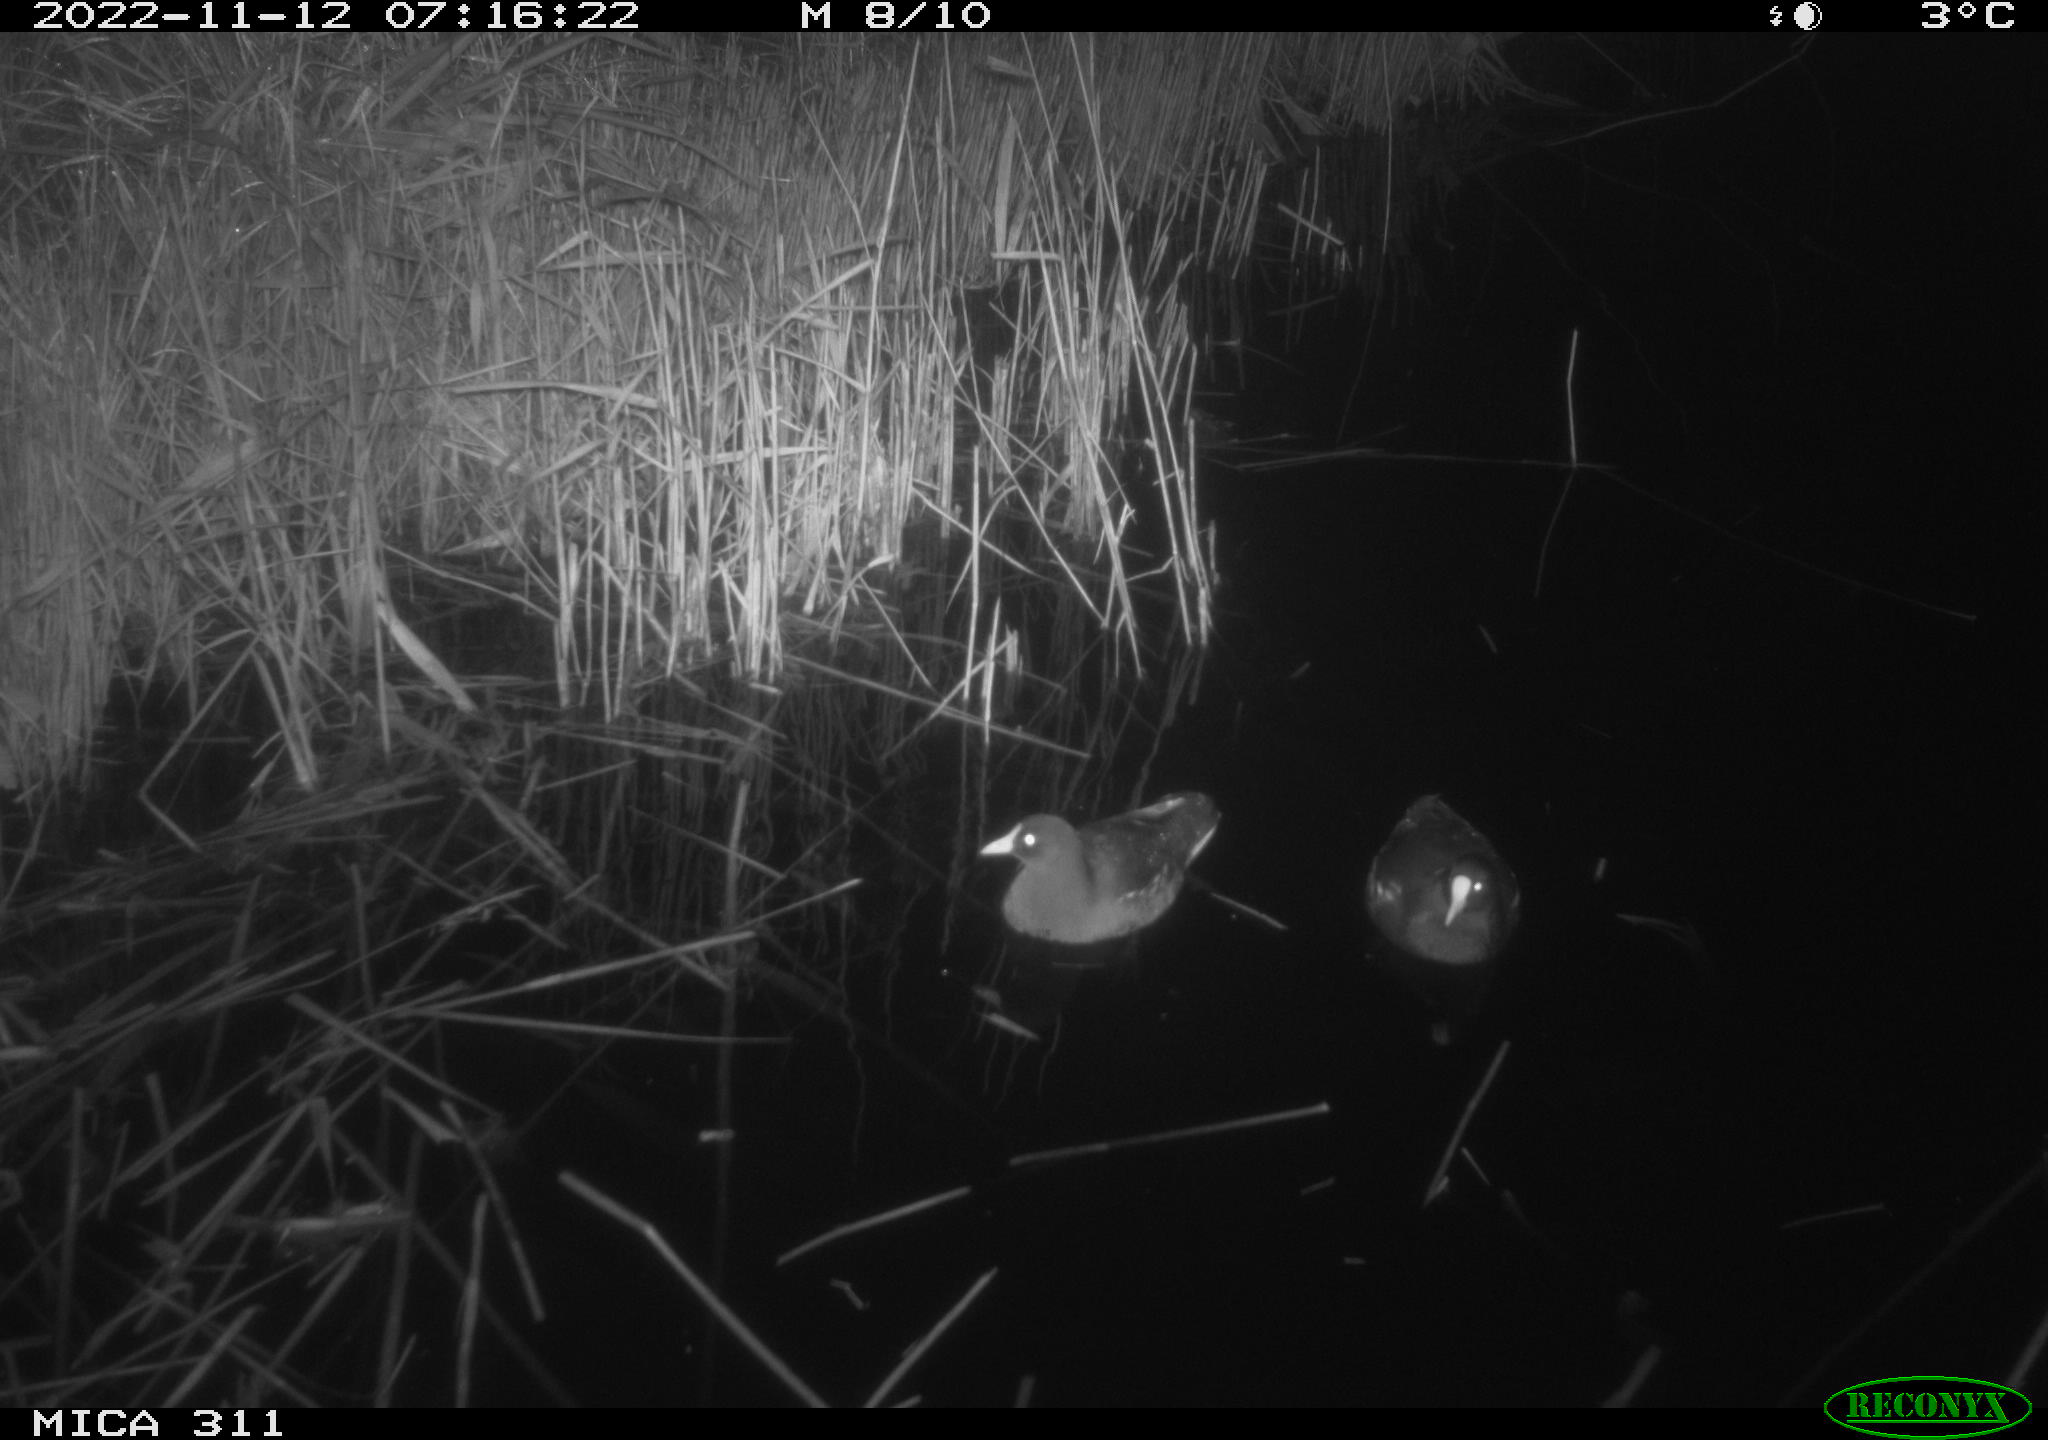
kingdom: Animalia
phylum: Chordata
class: Aves
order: Gruiformes
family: Rallidae
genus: Gallinula
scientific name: Gallinula chloropus
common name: Common moorhen
